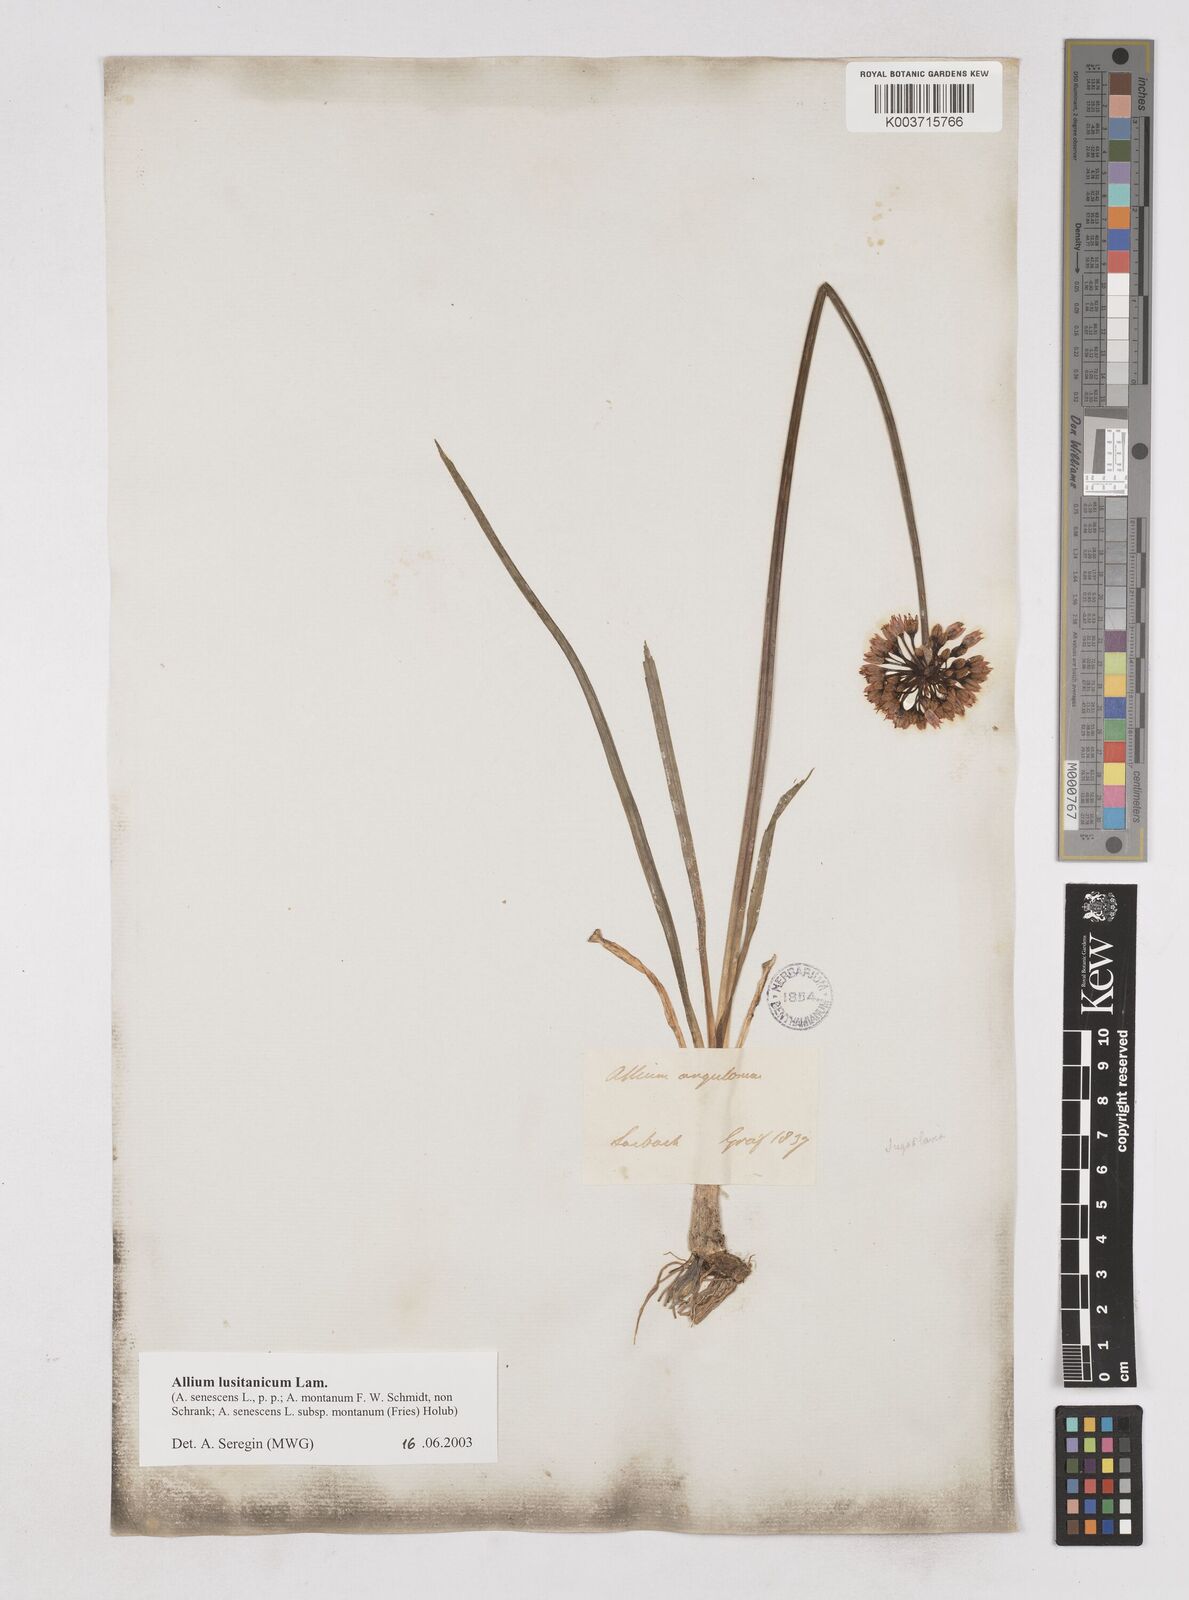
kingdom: Plantae
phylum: Tracheophyta
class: Liliopsida
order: Asparagales
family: Amaryllidaceae
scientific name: Amaryllidaceae
